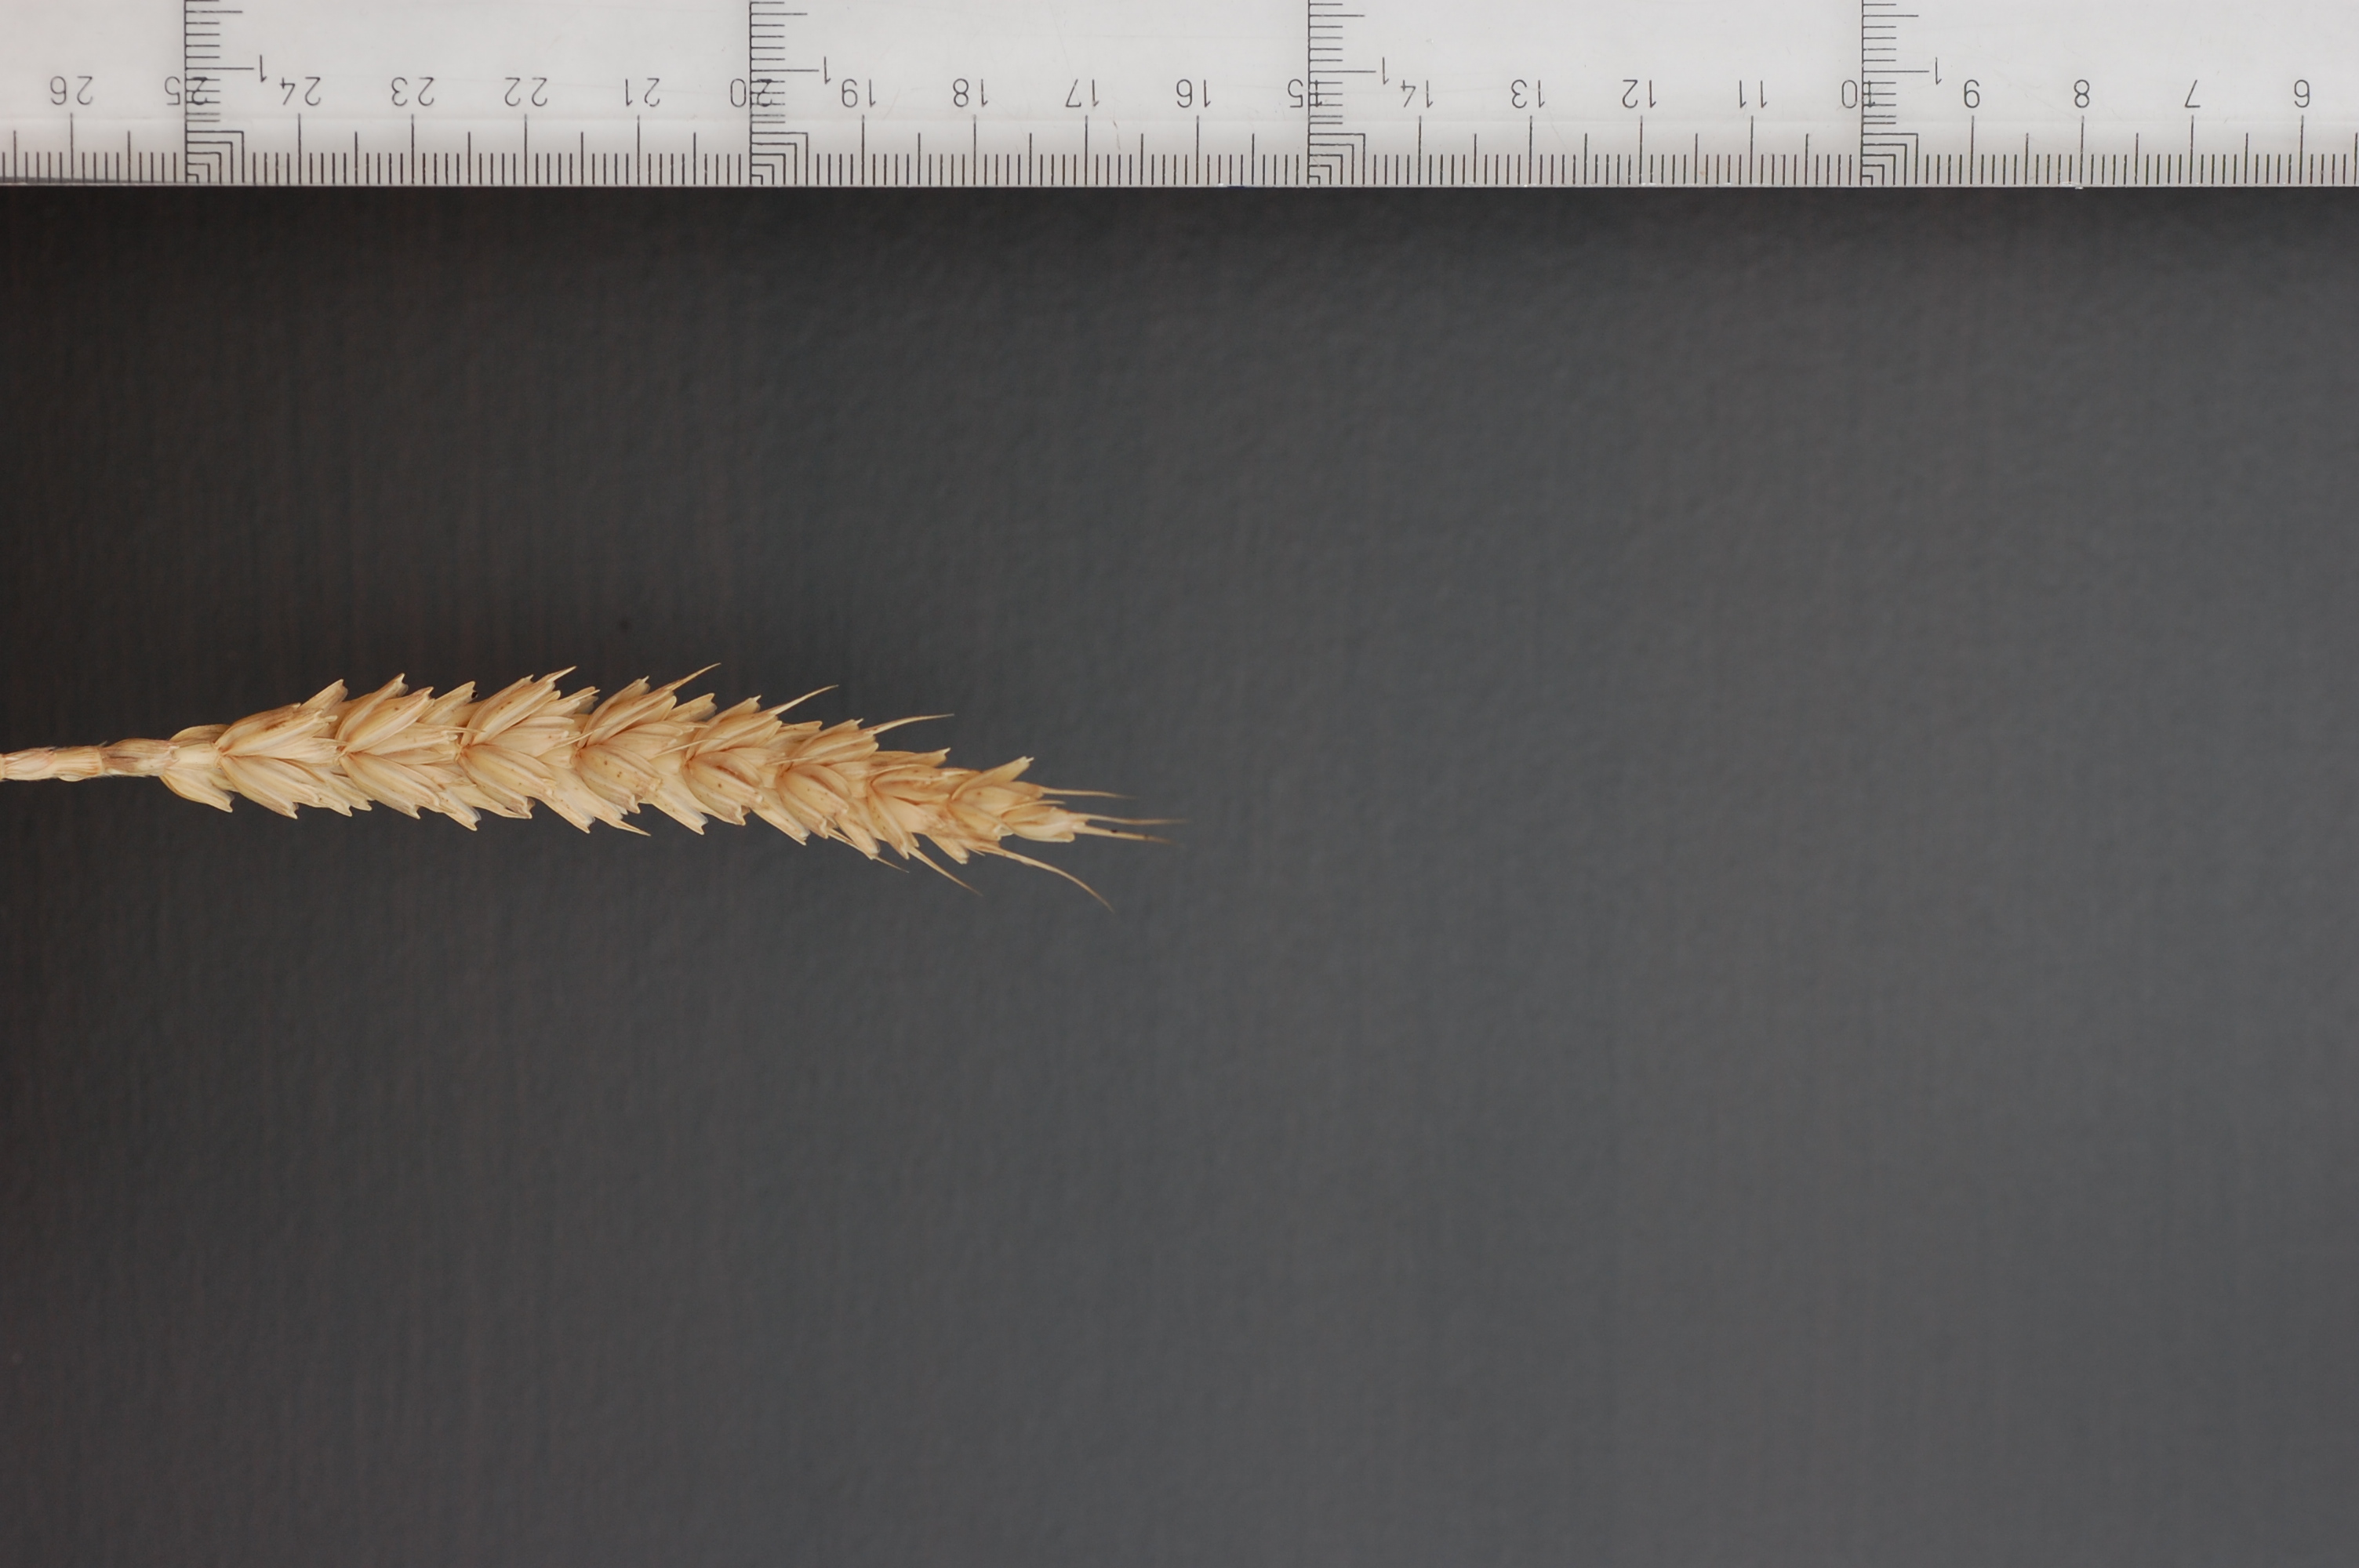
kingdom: Plantae
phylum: Tracheophyta
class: Liliopsida
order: Poales
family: Poaceae
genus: Triticum
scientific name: Triticum aestivum
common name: Common wheat
